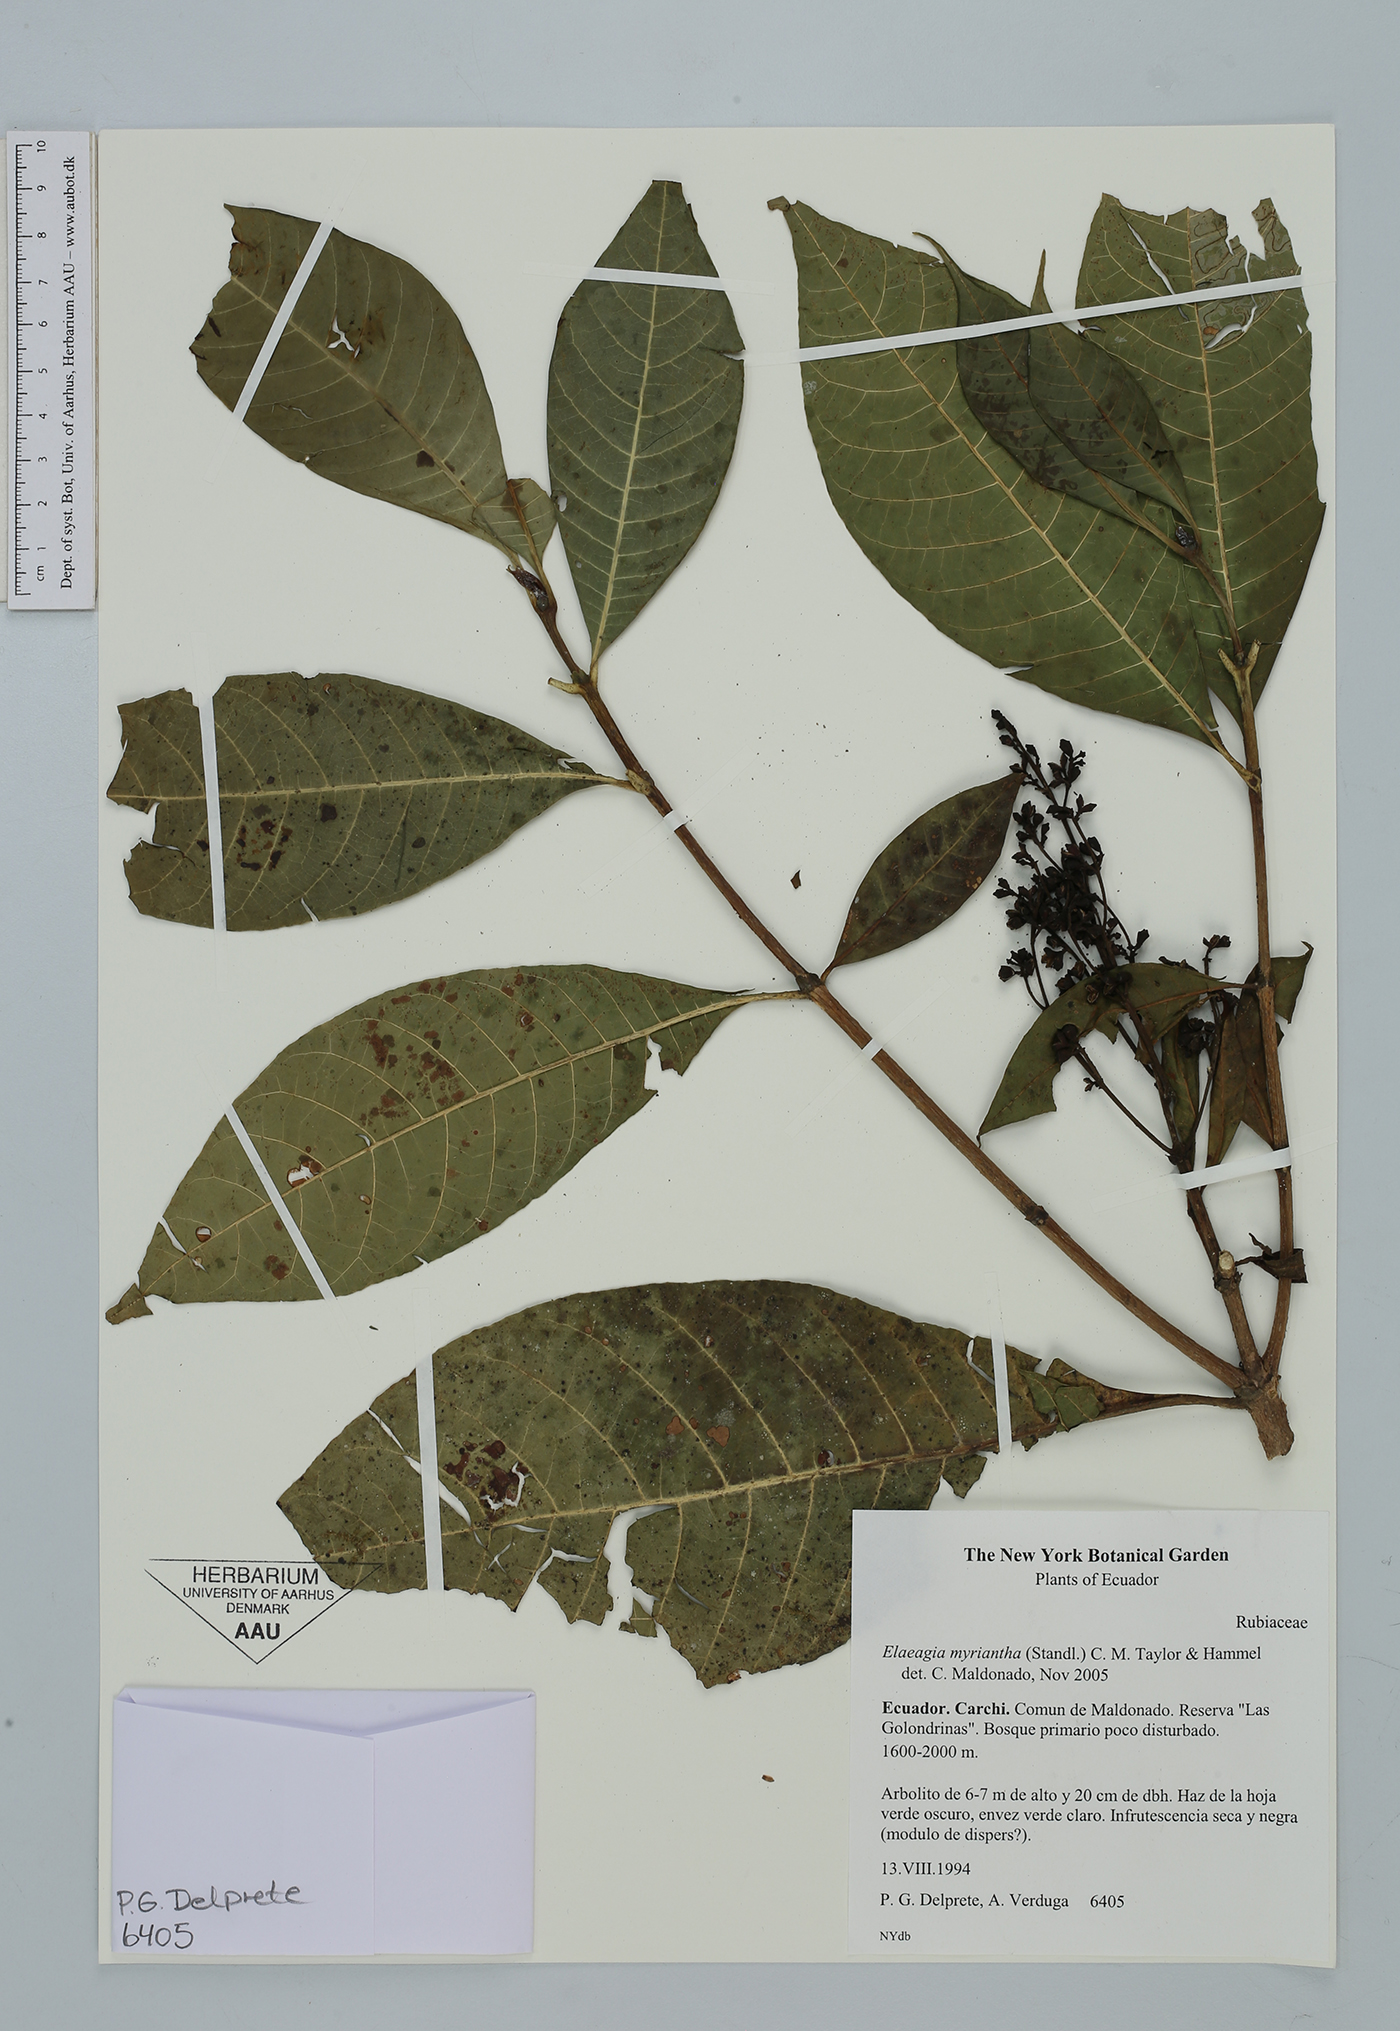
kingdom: Plantae
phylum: Tracheophyta
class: Magnoliopsida
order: Gentianales
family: Rubiaceae
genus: Elaeagia
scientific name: Elaeagia myriantha
